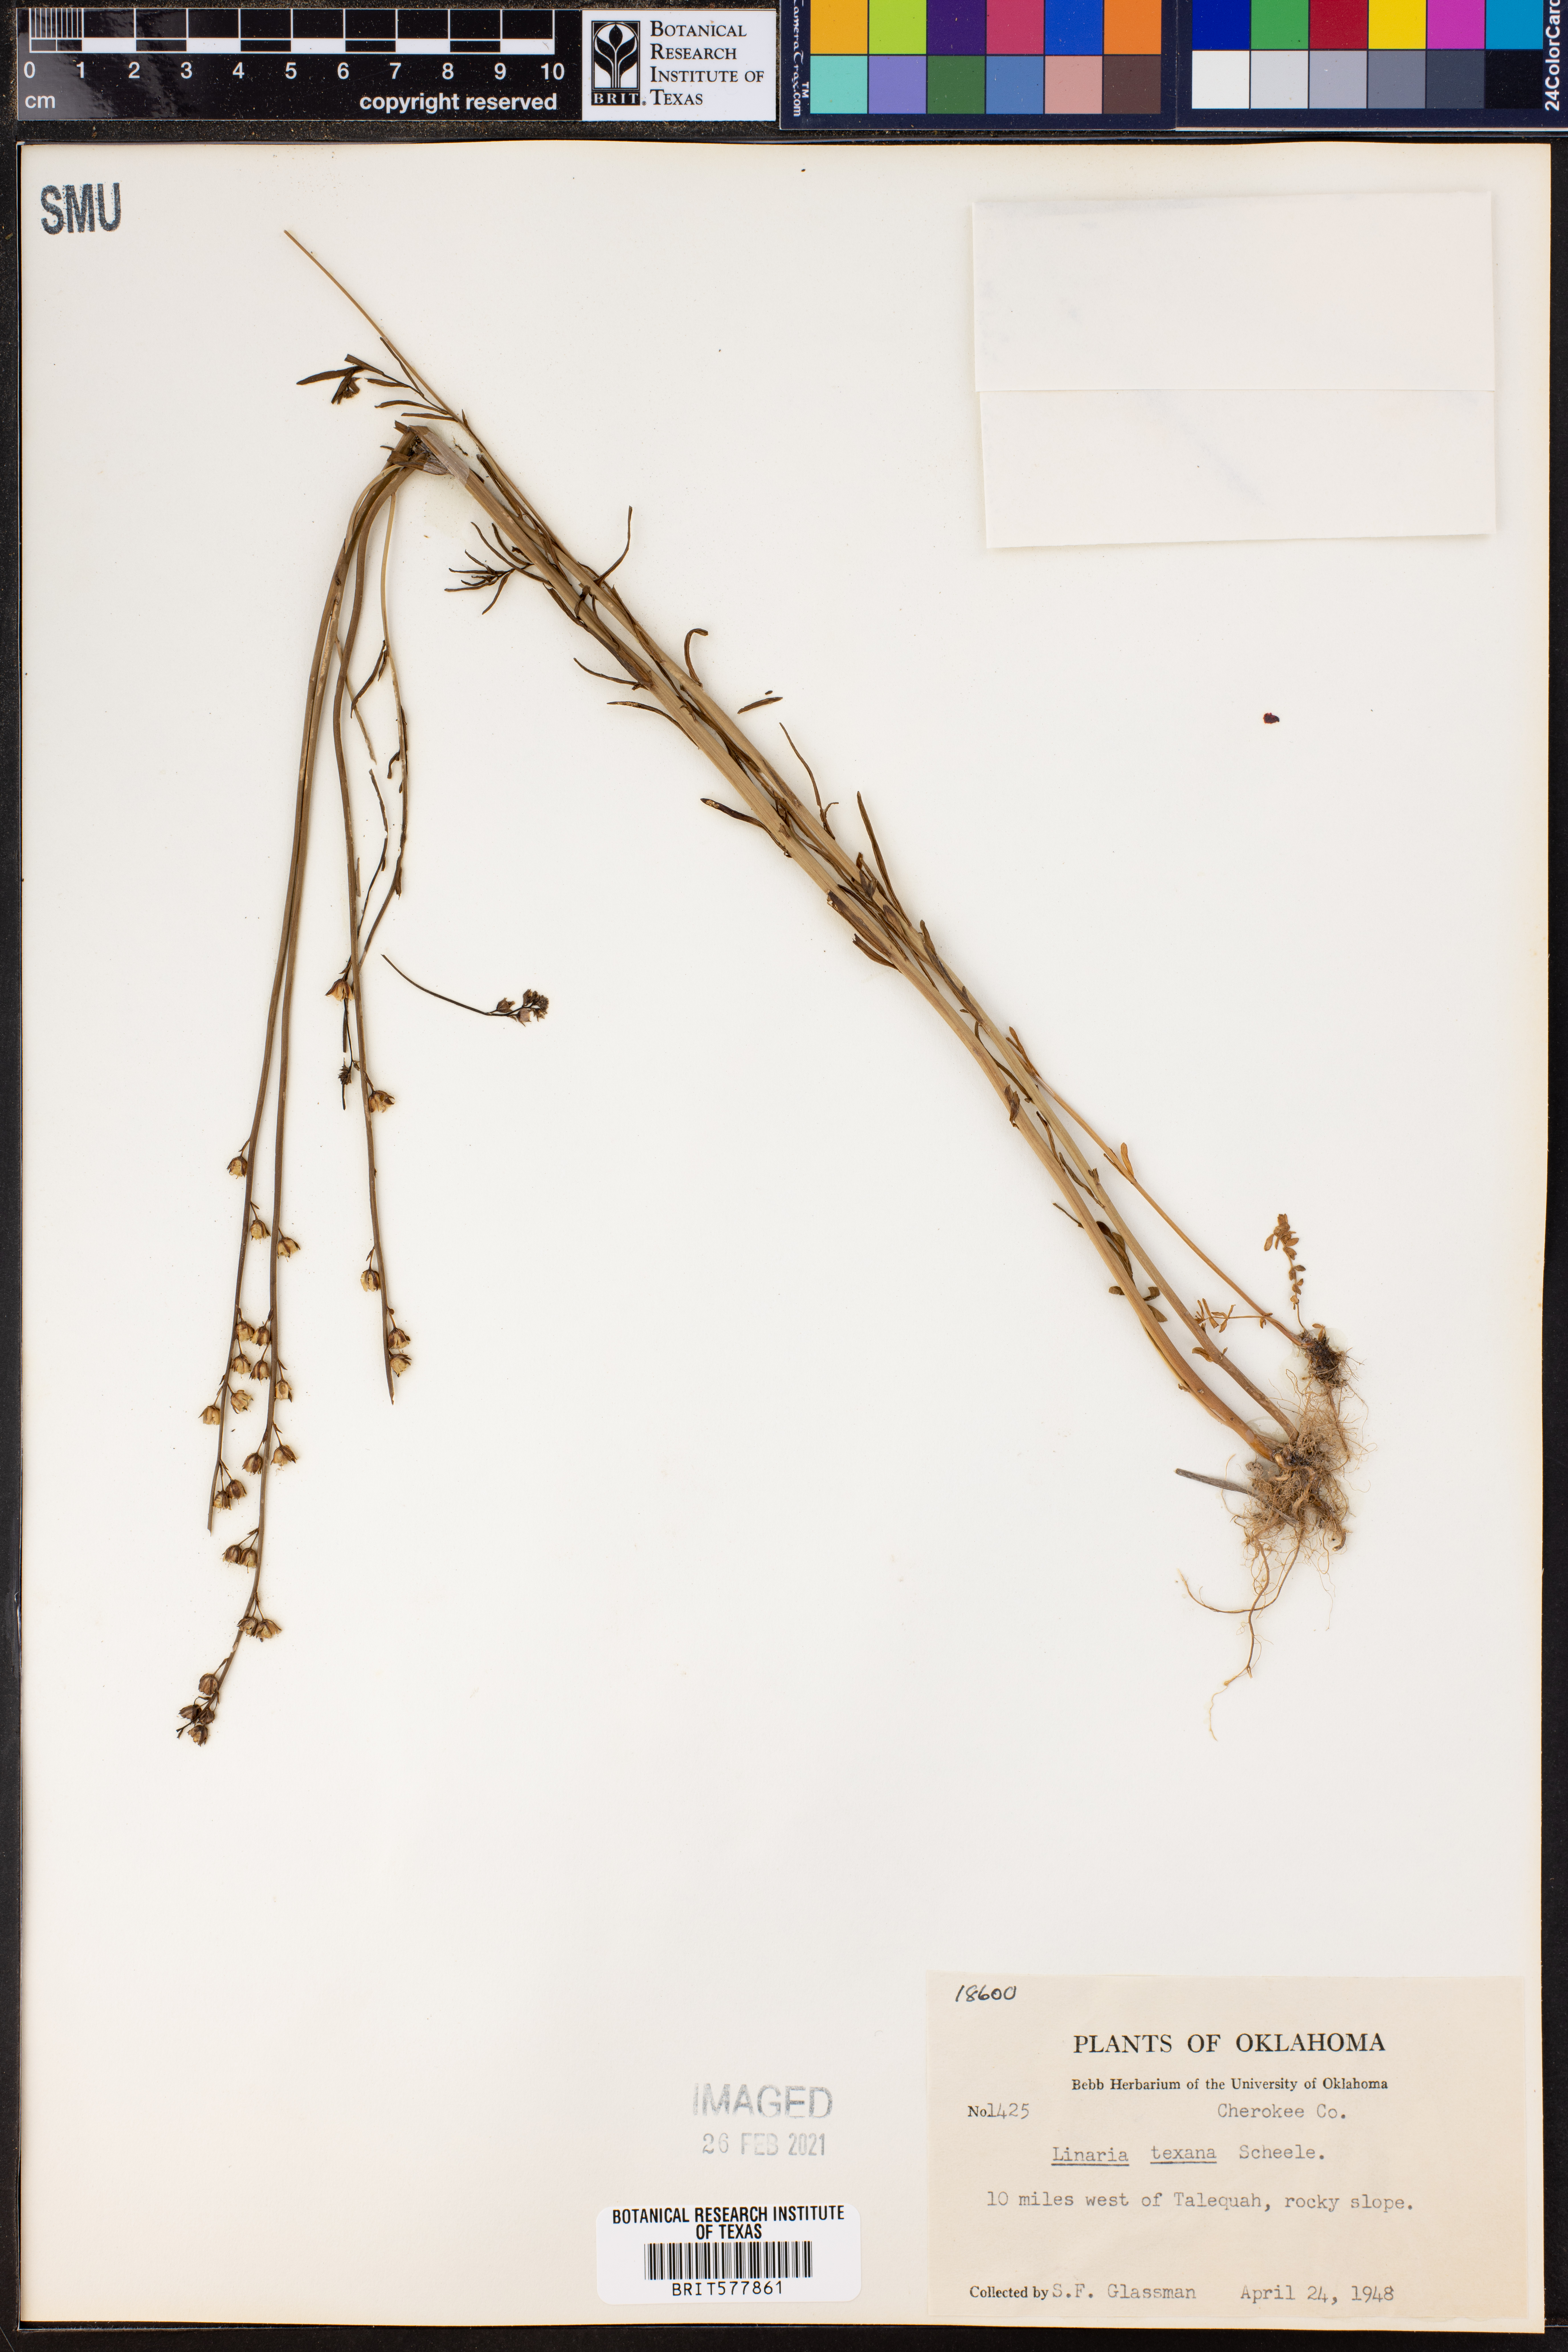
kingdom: Plantae
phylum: Tracheophyta
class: Magnoliopsida
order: Lamiales
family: Plantaginaceae
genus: Nuttallanthus
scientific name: Nuttallanthus texanus
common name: Texas toadflax
